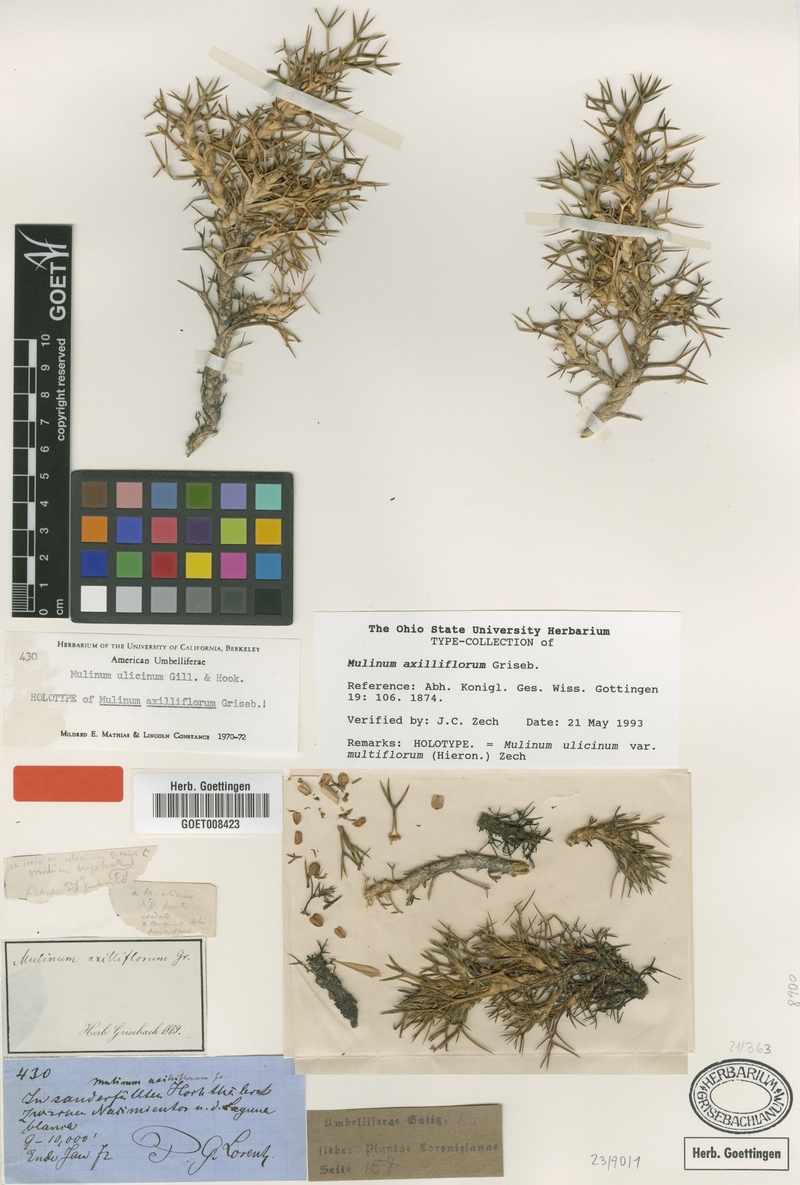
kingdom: Plantae
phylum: Tracheophyta
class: Magnoliopsida
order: Apiales
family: Apiaceae
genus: Azorella
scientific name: Azorella ulicina
